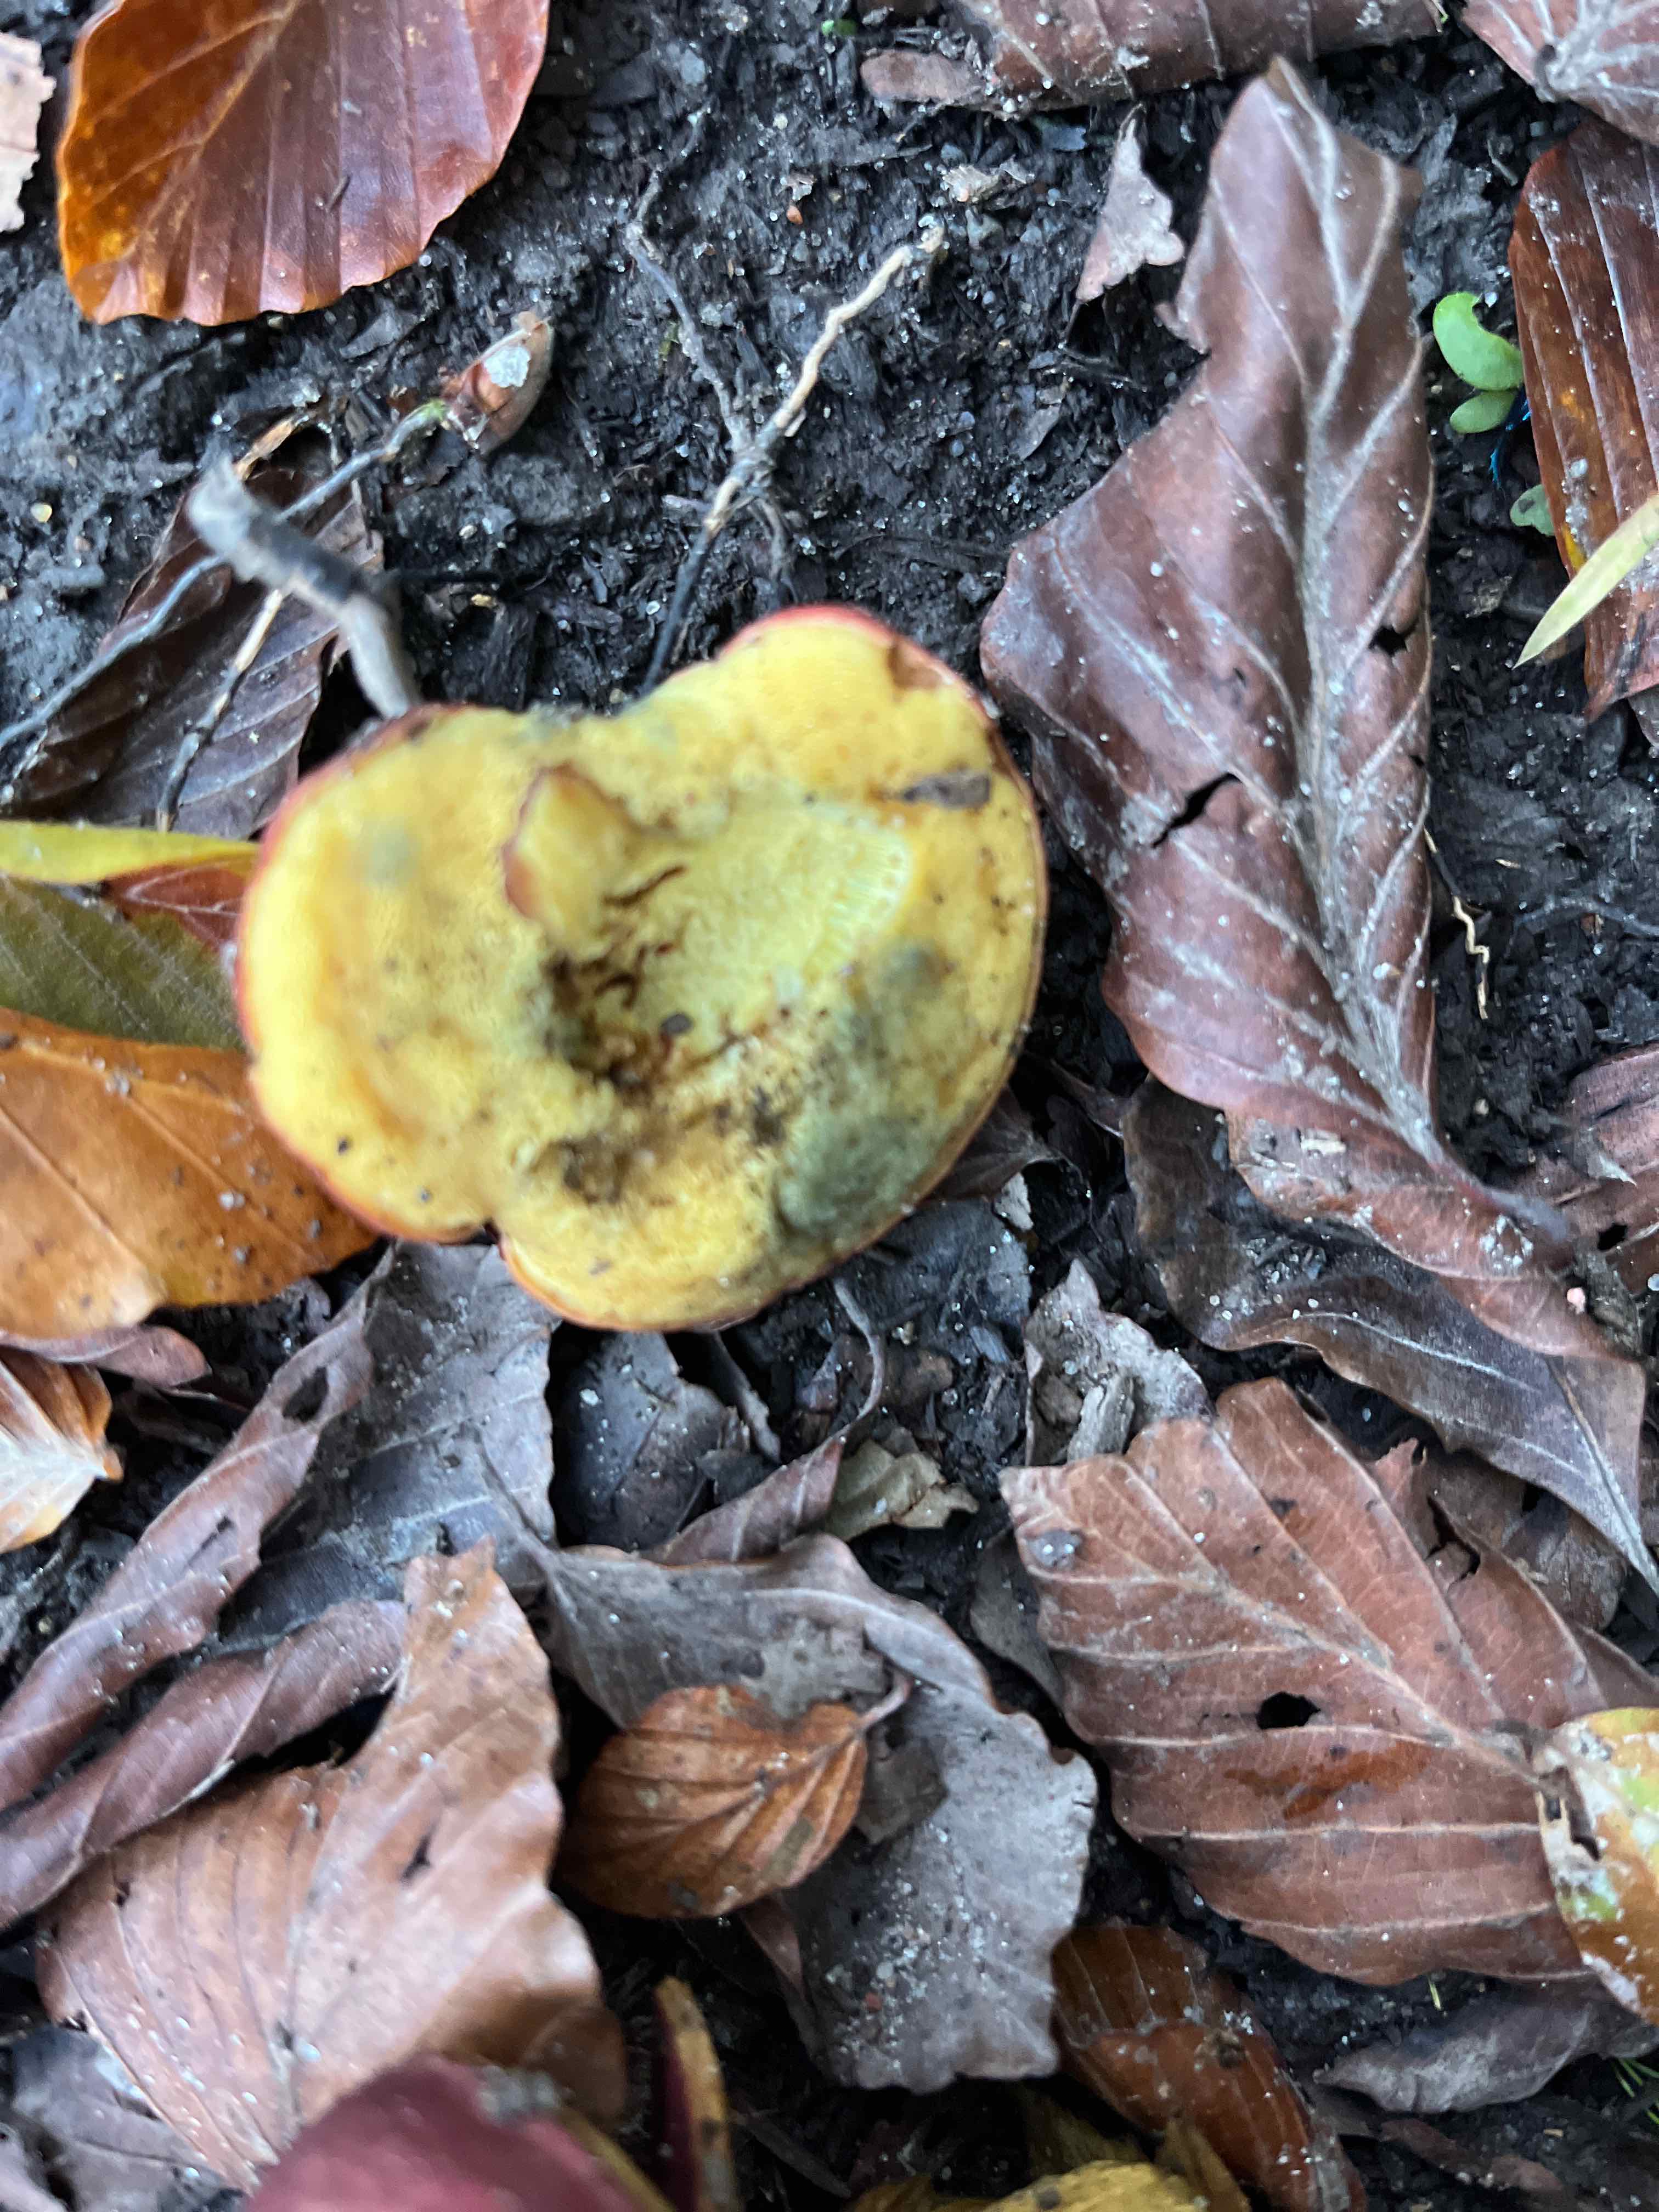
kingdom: Fungi
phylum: Basidiomycota
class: Agaricomycetes
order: Boletales
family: Boletaceae
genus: Hortiboletus
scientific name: Hortiboletus rubellus
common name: blodrød rørhat
